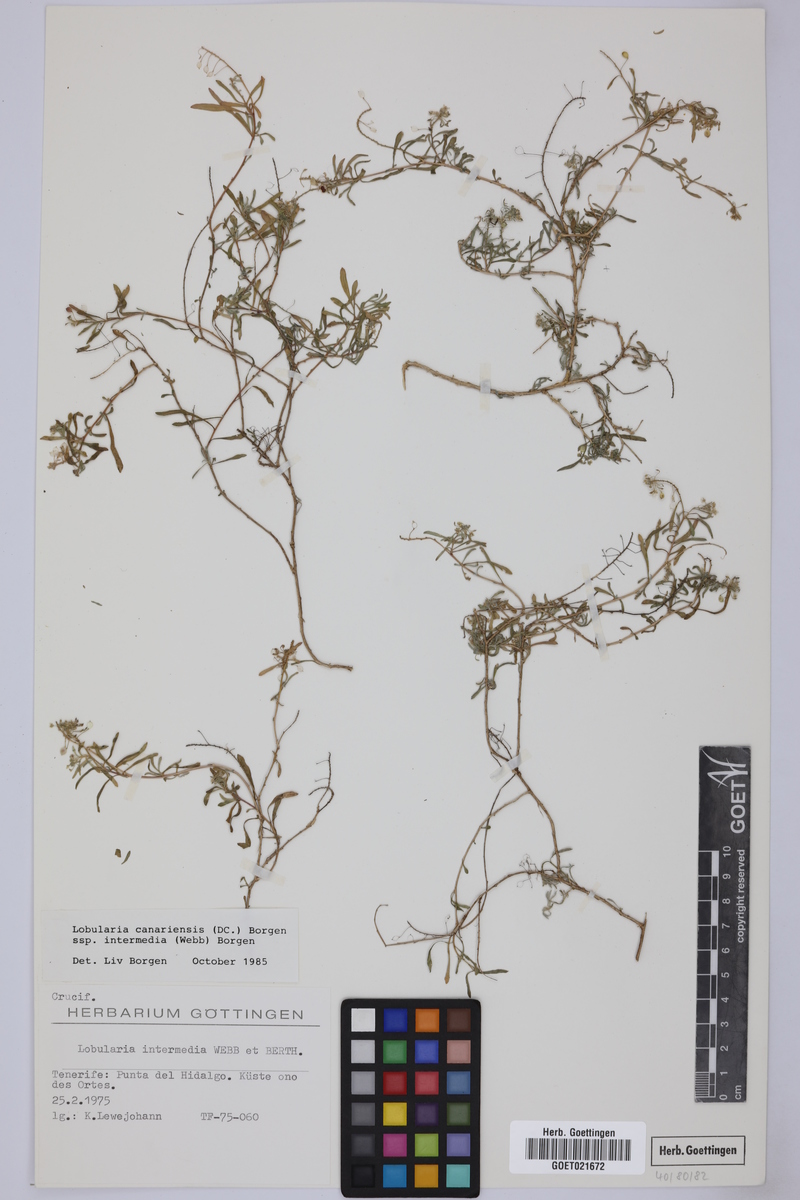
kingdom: Plantae
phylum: Tracheophyta
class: Magnoliopsida
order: Brassicales
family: Brassicaceae
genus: Lobularia
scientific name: Lobularia canariensis
